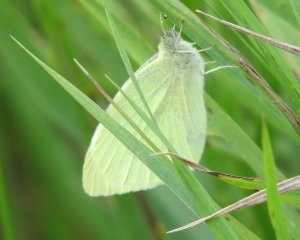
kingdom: Animalia
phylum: Arthropoda
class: Insecta
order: Lepidoptera
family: Pieridae
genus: Pieris
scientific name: Pieris rapae
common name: Cabbage White
